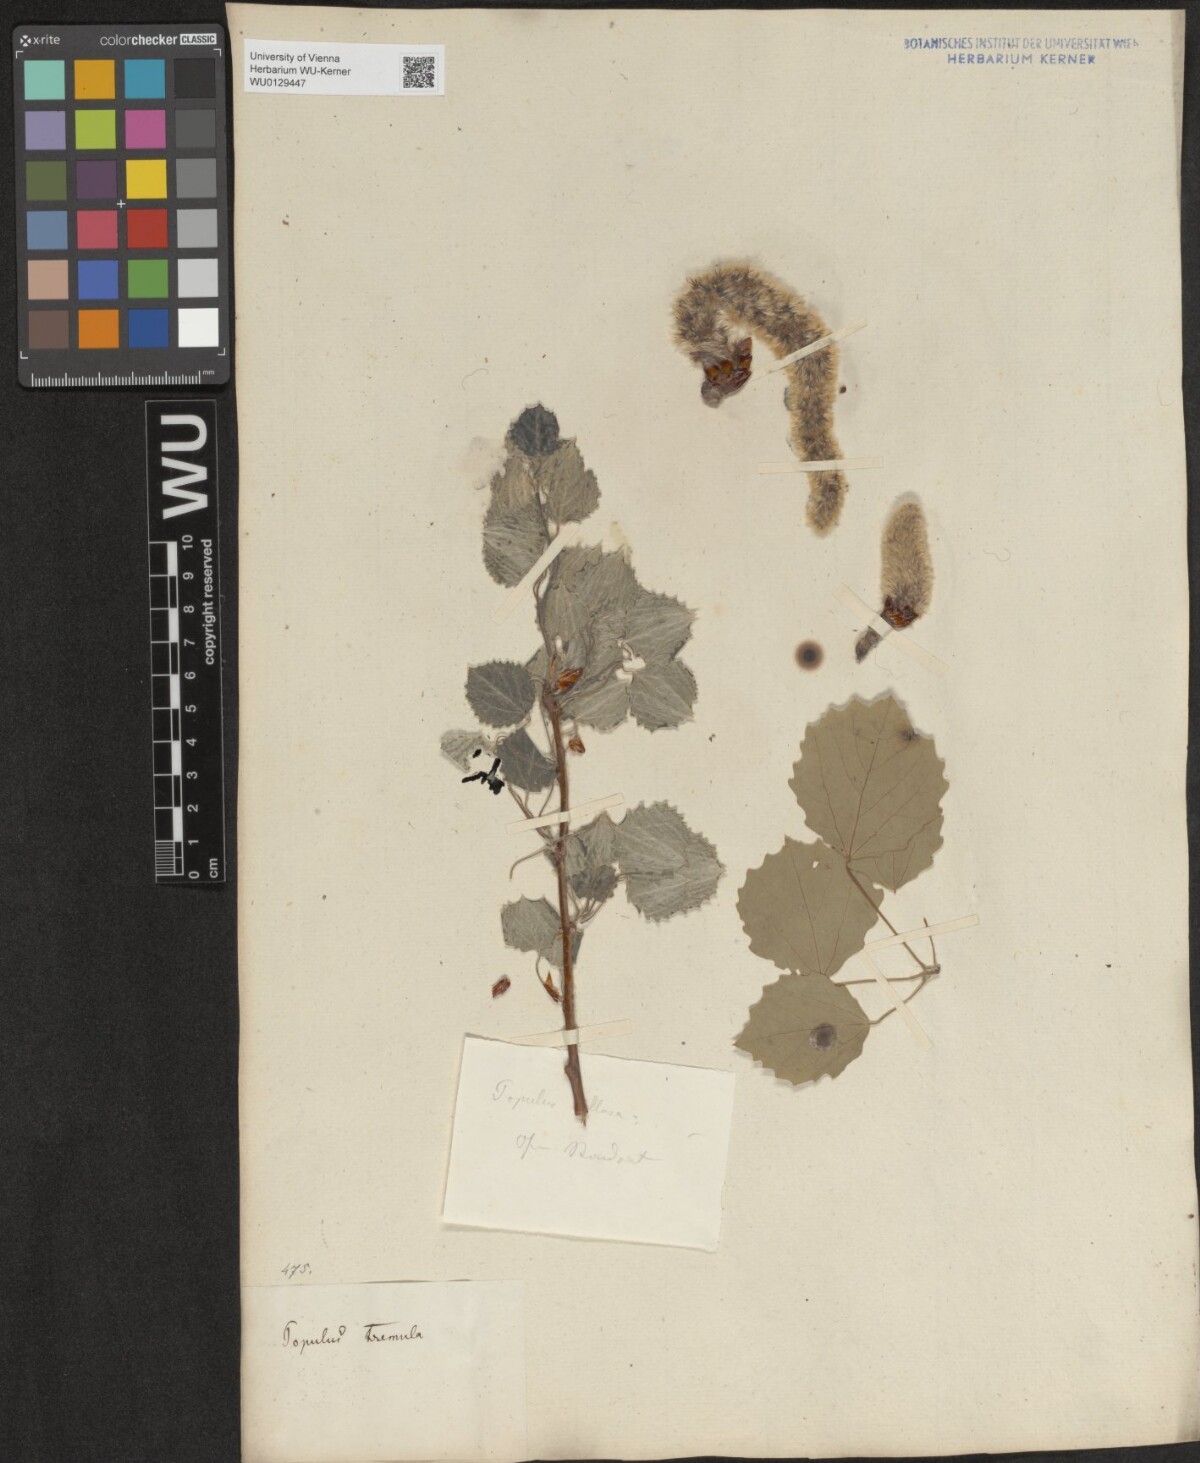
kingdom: Plantae
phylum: Tracheophyta
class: Magnoliopsida
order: Malpighiales
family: Salicaceae
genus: Populus
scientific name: Populus tremula
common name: European aspen
